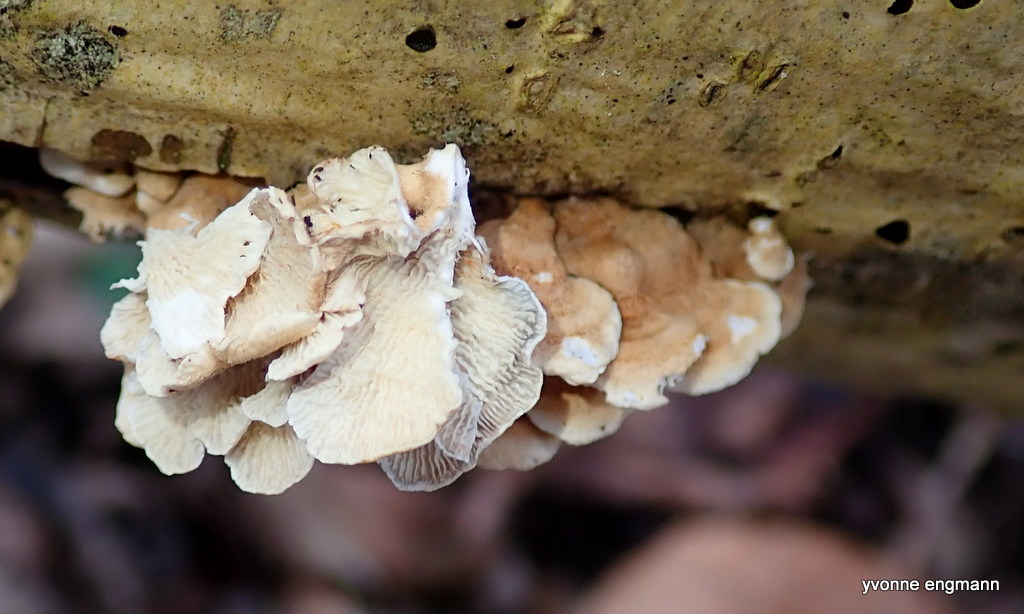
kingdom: Fungi
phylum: Basidiomycota
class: Agaricomycetes
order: Amylocorticiales
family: Amylocorticiaceae
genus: Plicaturopsis
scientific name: Plicaturopsis crispa
